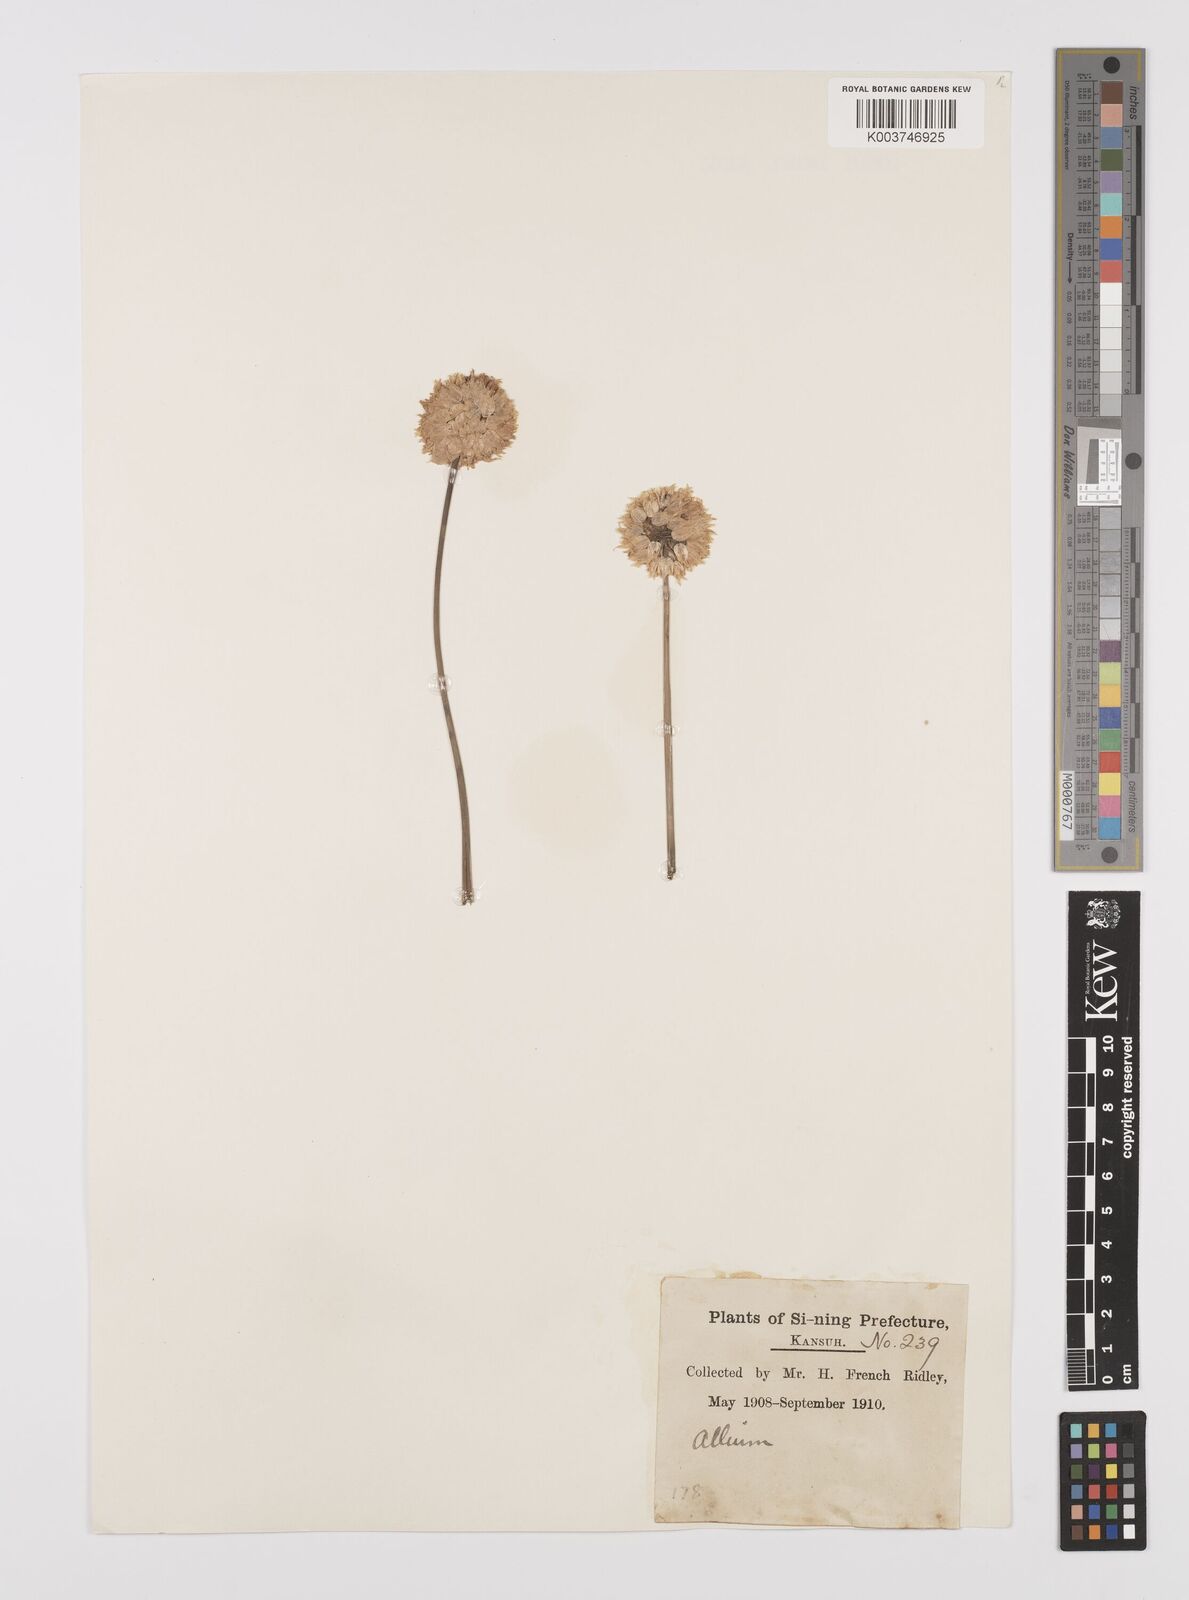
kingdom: Plantae
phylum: Tracheophyta
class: Liliopsida
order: Asparagales
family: Amaryllidaceae
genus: Allium
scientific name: Allium
